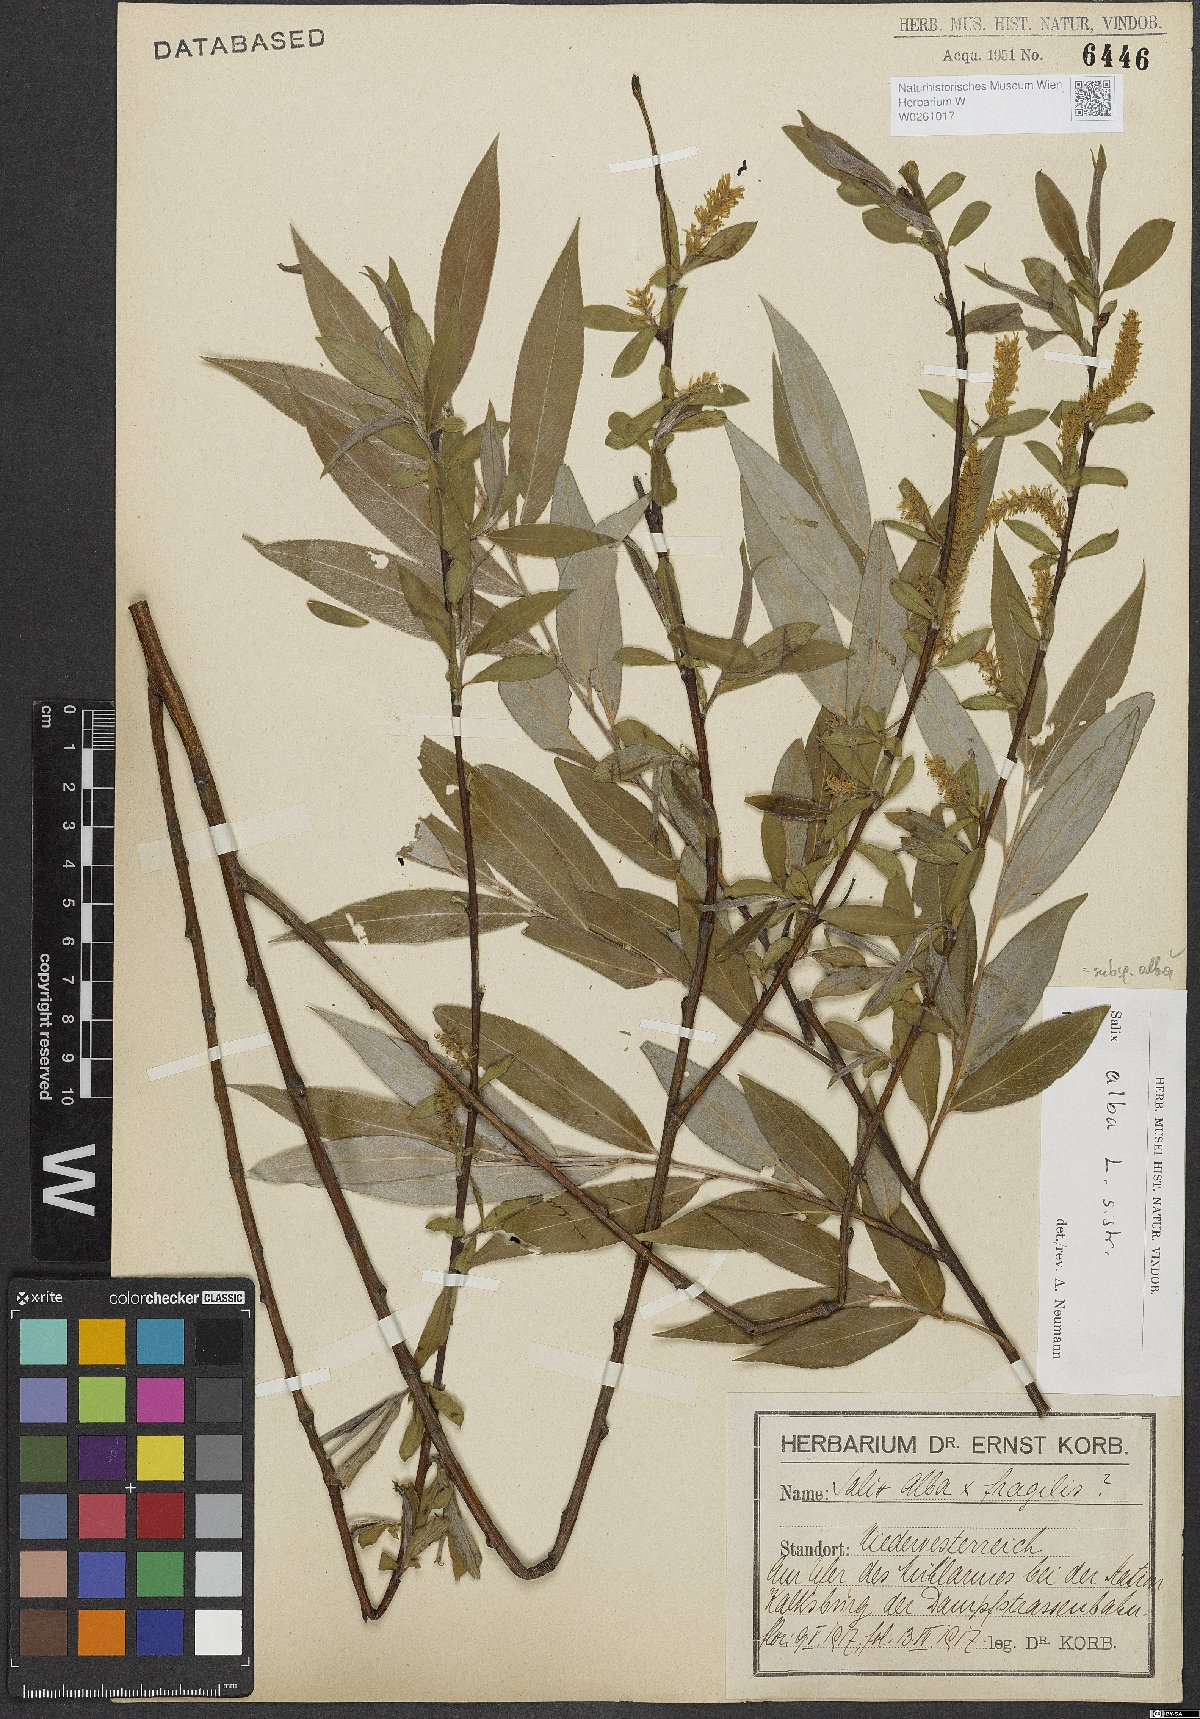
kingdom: Plantae
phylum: Tracheophyta
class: Magnoliopsida
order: Malpighiales
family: Salicaceae
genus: Salix
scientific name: Salix alba
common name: White willow
